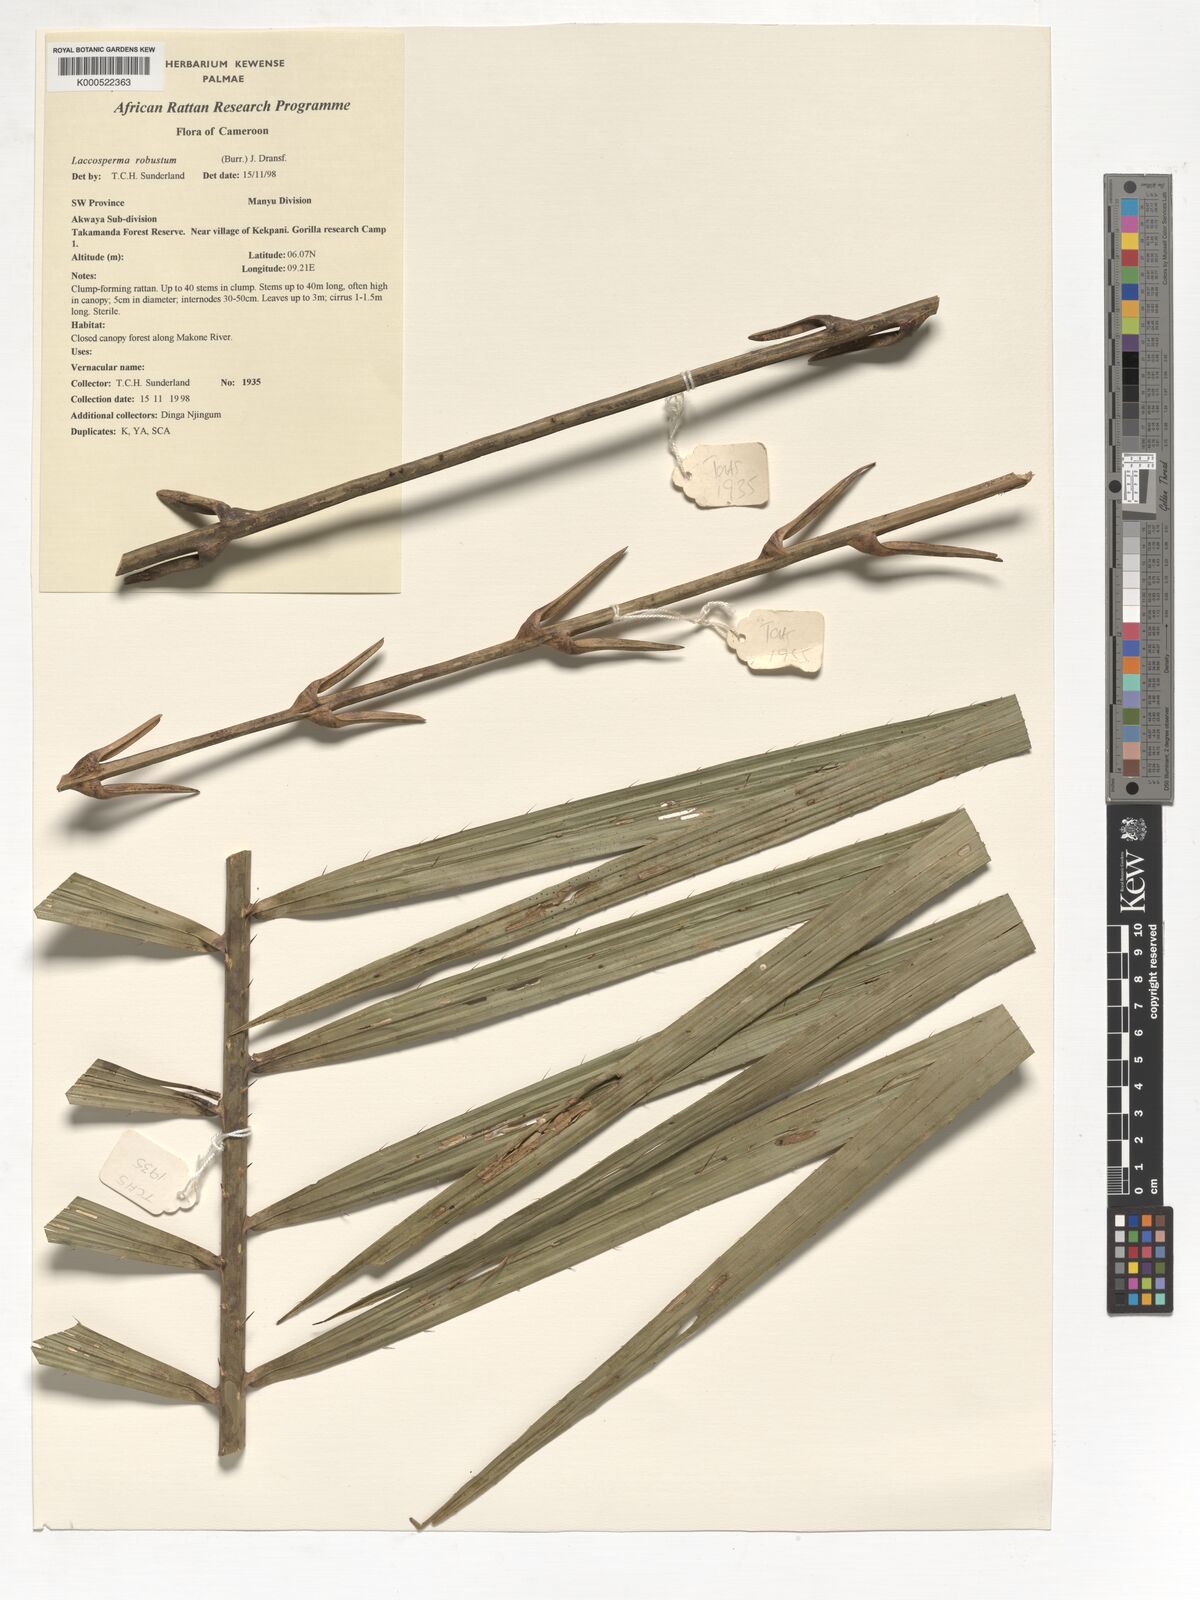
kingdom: Plantae
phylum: Tracheophyta
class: Liliopsida
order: Arecales
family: Arecaceae
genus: Laccosperma
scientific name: Laccosperma robustum
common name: Rattan
